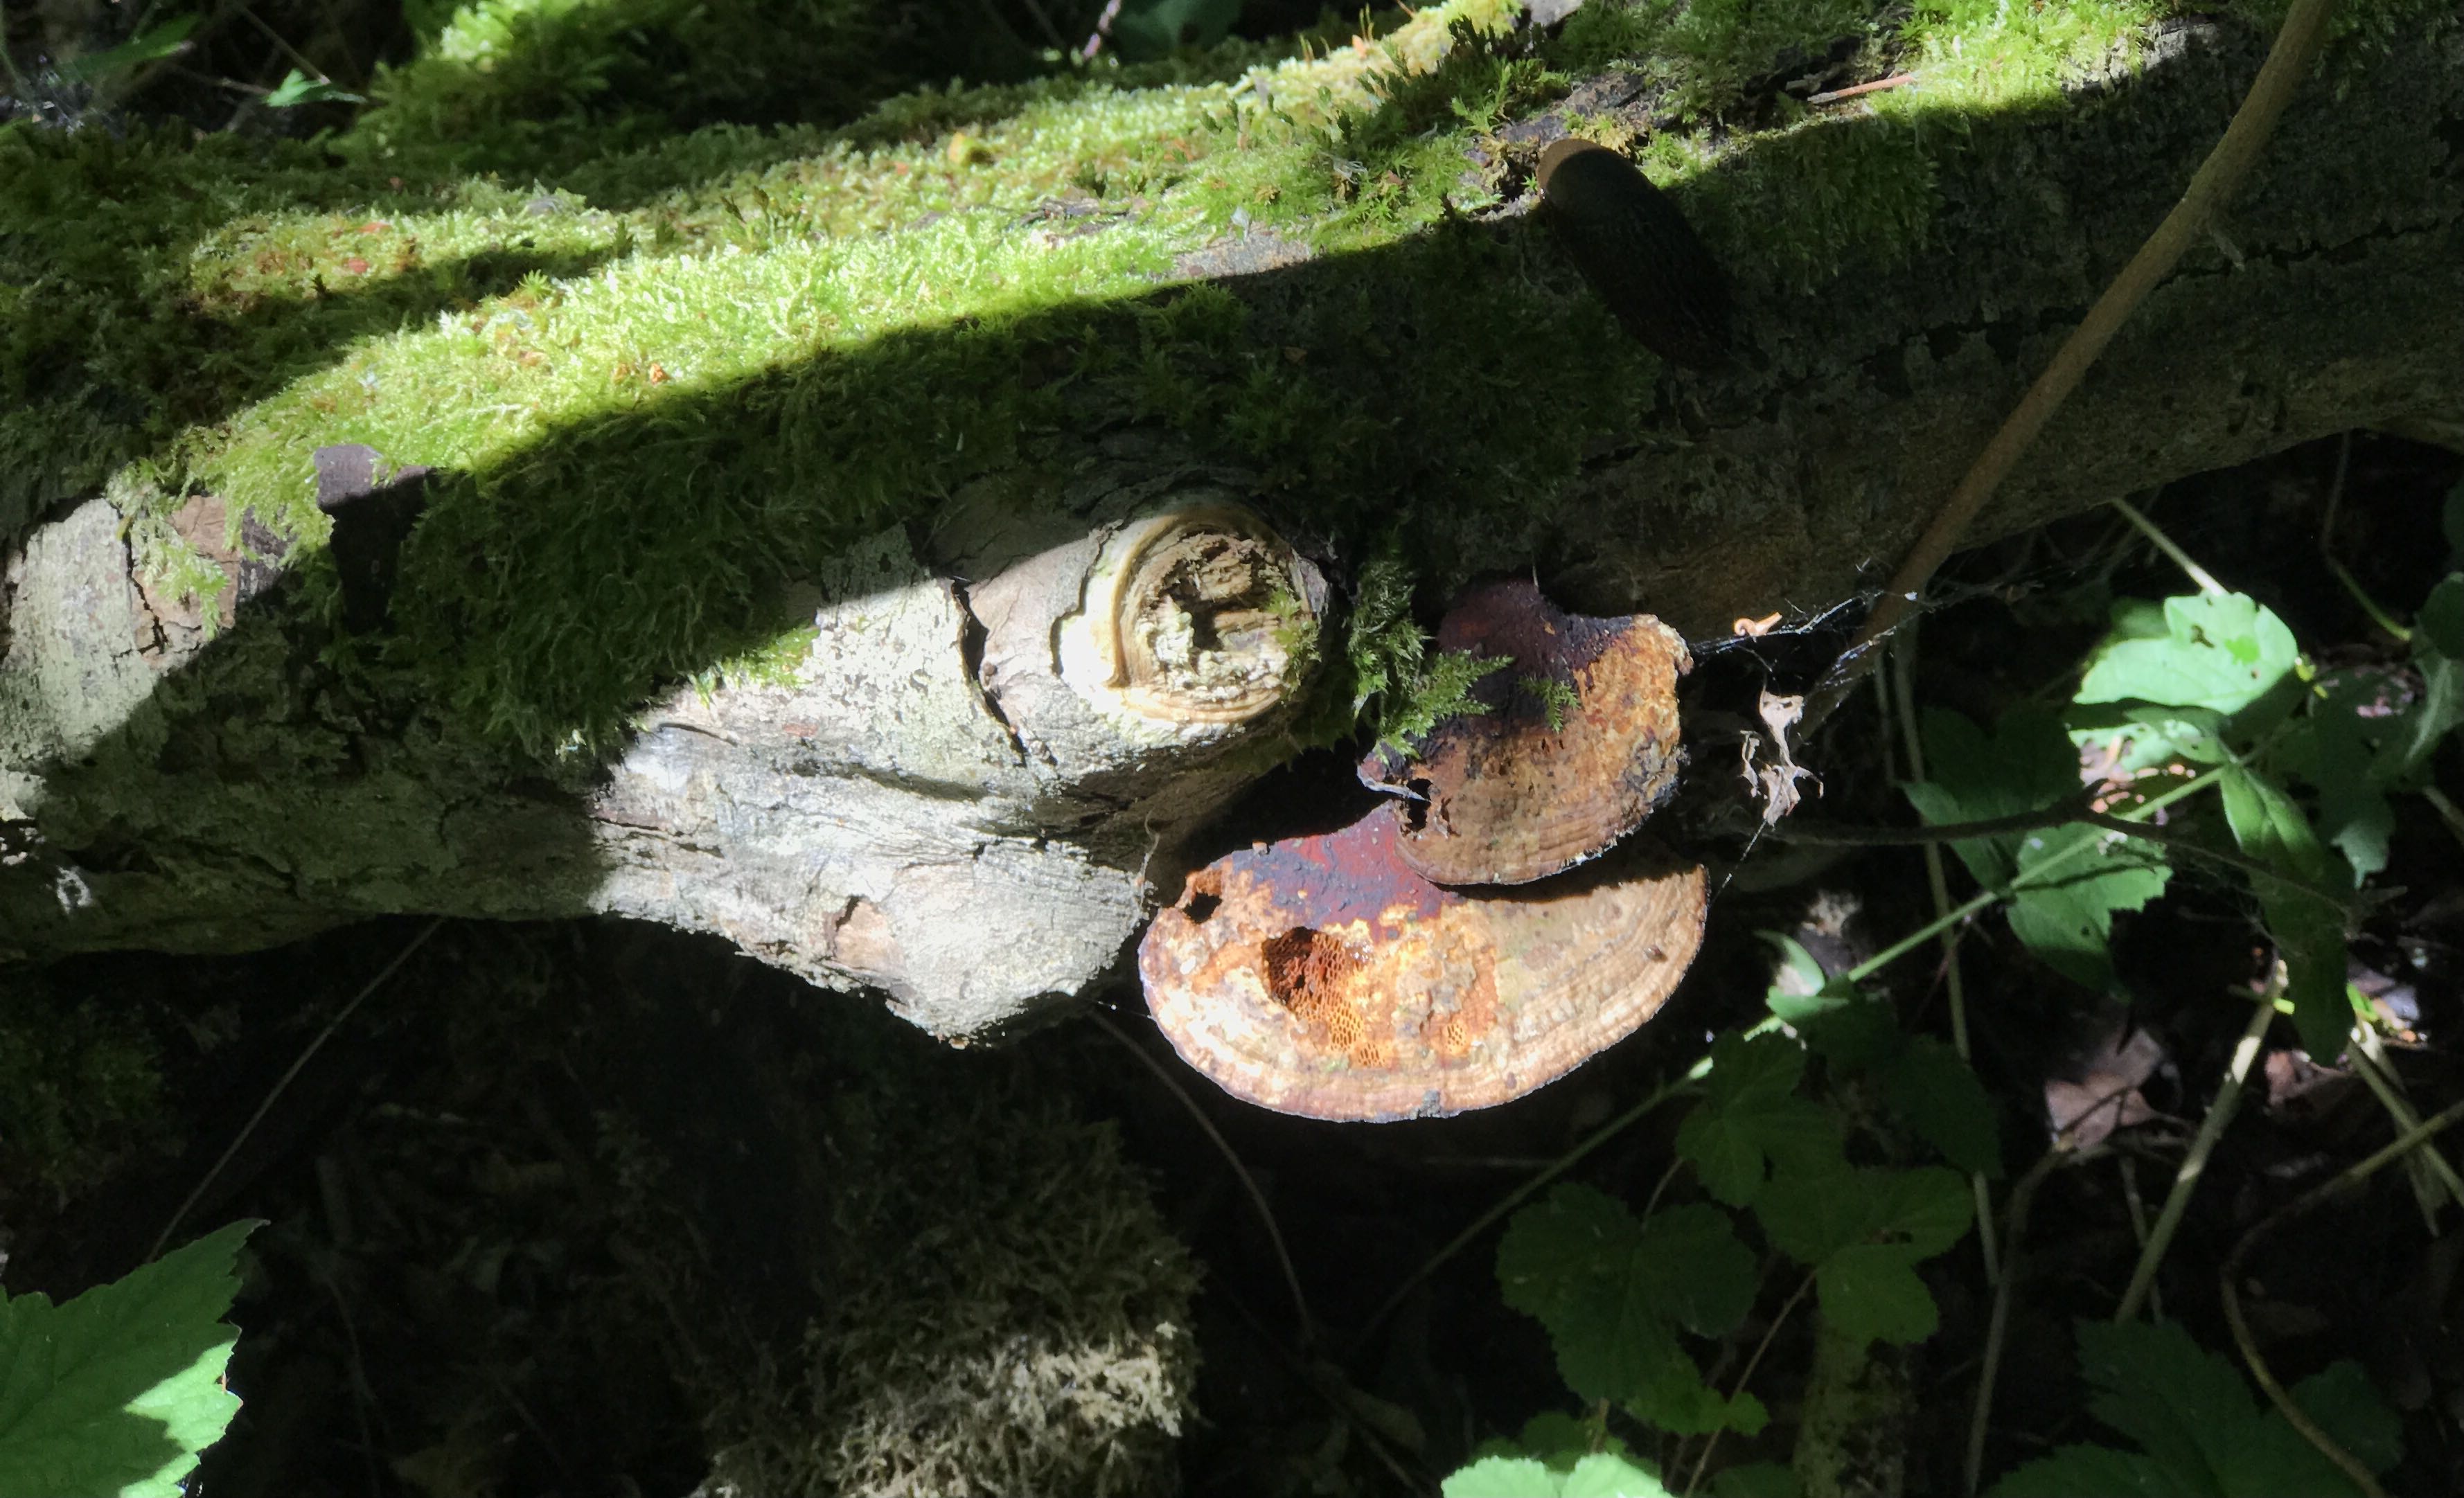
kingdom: Fungi
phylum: Basidiomycota
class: Agaricomycetes
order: Polyporales
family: Polyporaceae
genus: Daedaleopsis
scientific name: Daedaleopsis confragosa
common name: rødmende læderporesvamp
